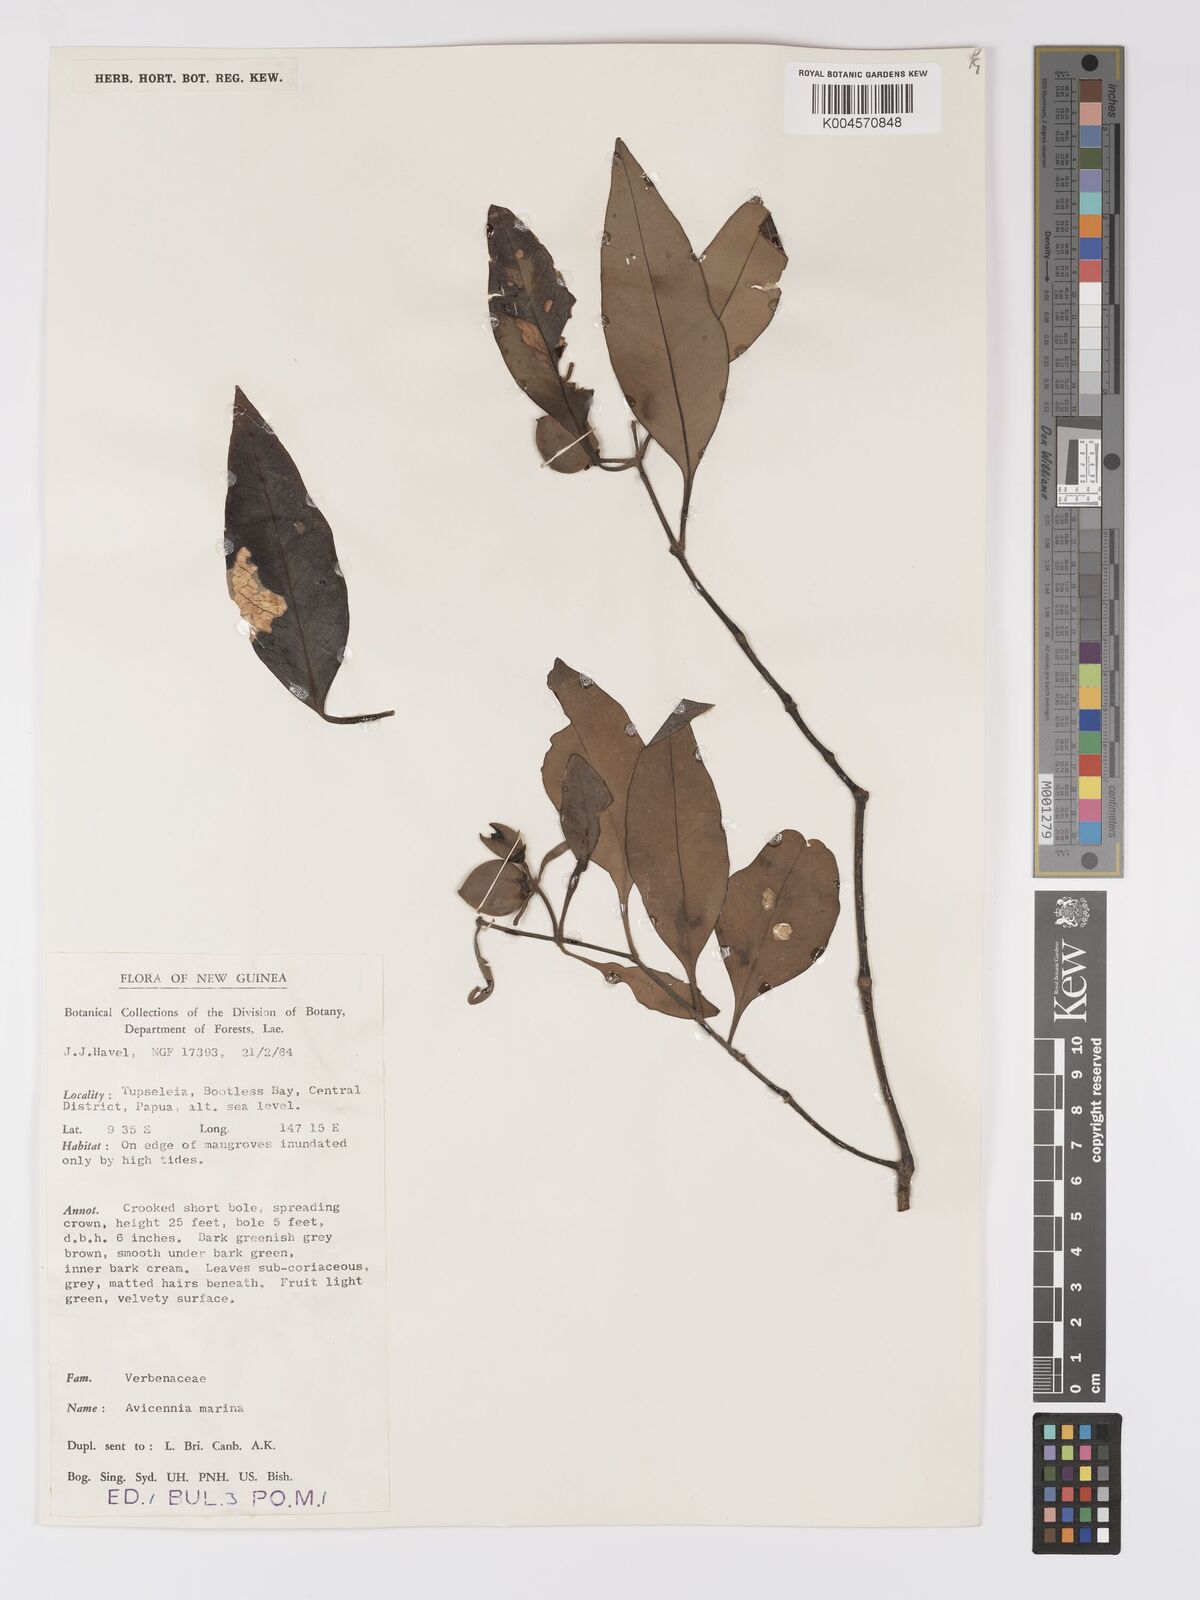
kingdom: Plantae
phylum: Tracheophyta
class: Magnoliopsida
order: Lamiales
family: Acanthaceae
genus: Avicennia
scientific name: Avicennia marina
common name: Gray mangrove
